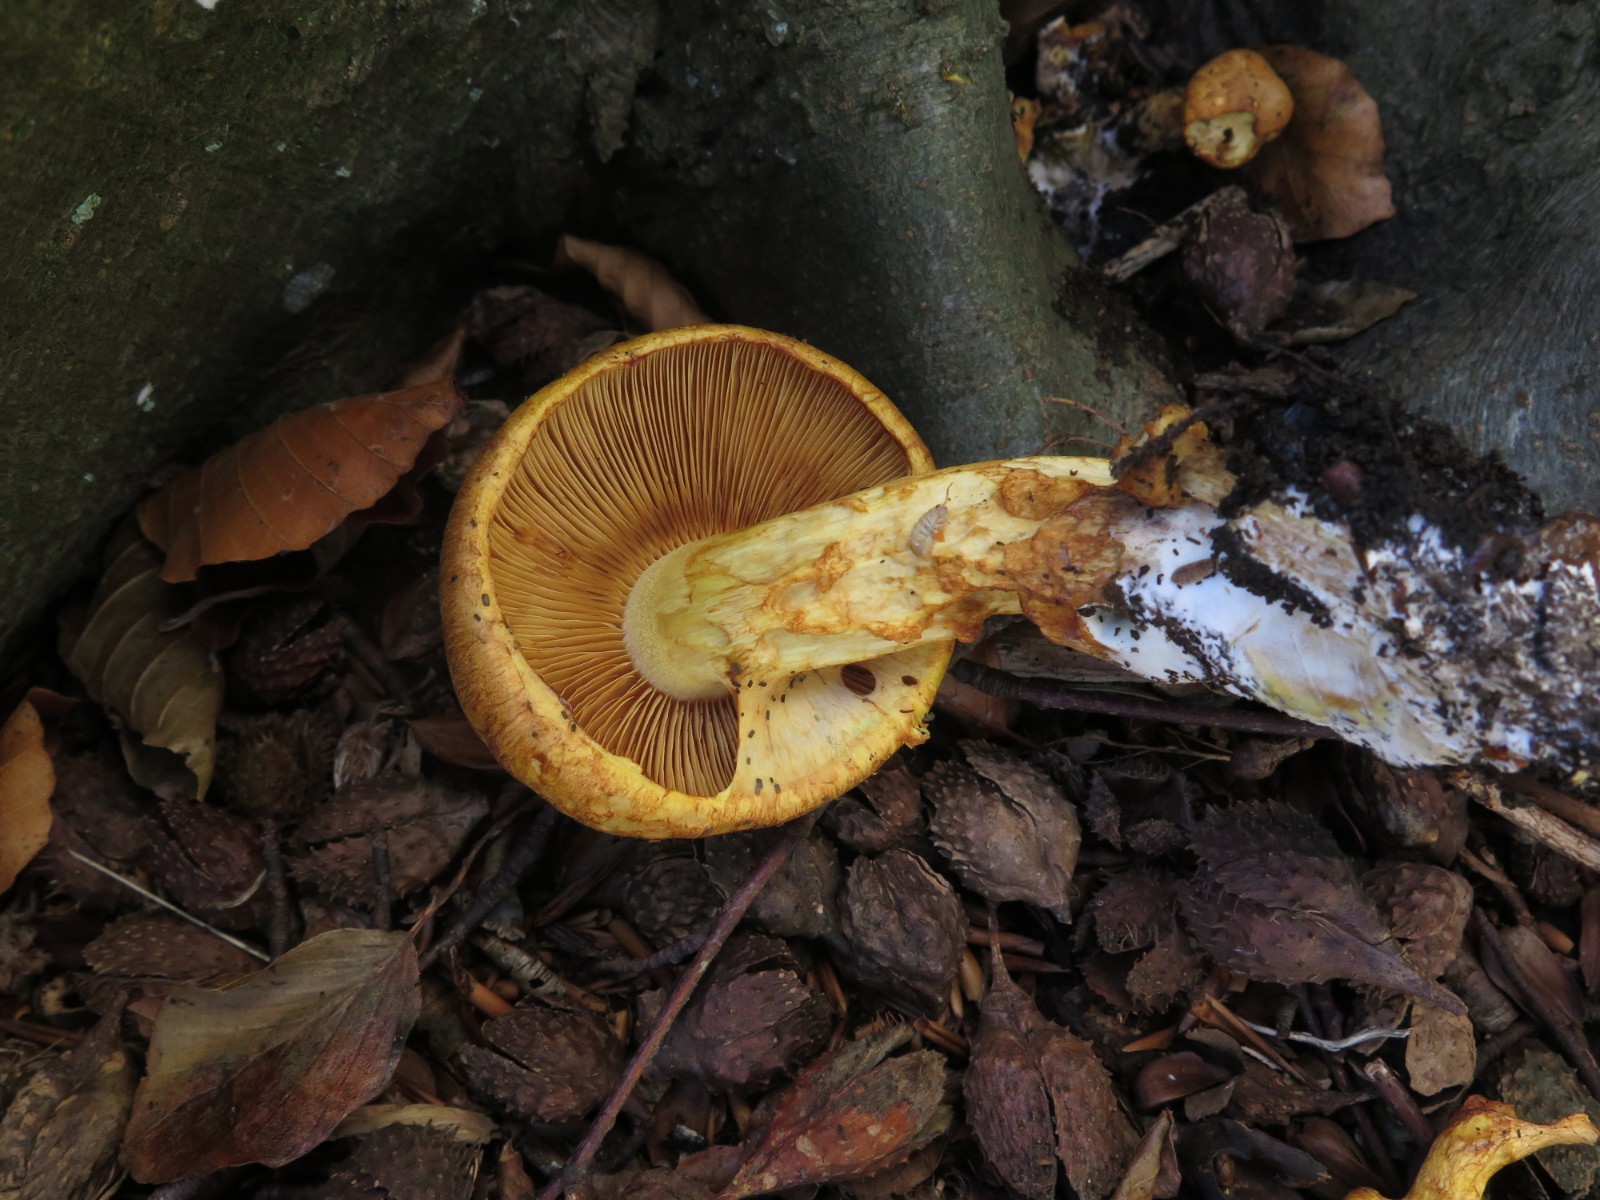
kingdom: Fungi
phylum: Basidiomycota
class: Agaricomycetes
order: Agaricales
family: Hymenogastraceae
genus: Gymnopilus
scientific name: Gymnopilus spectabilis
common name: fibret flammehat
